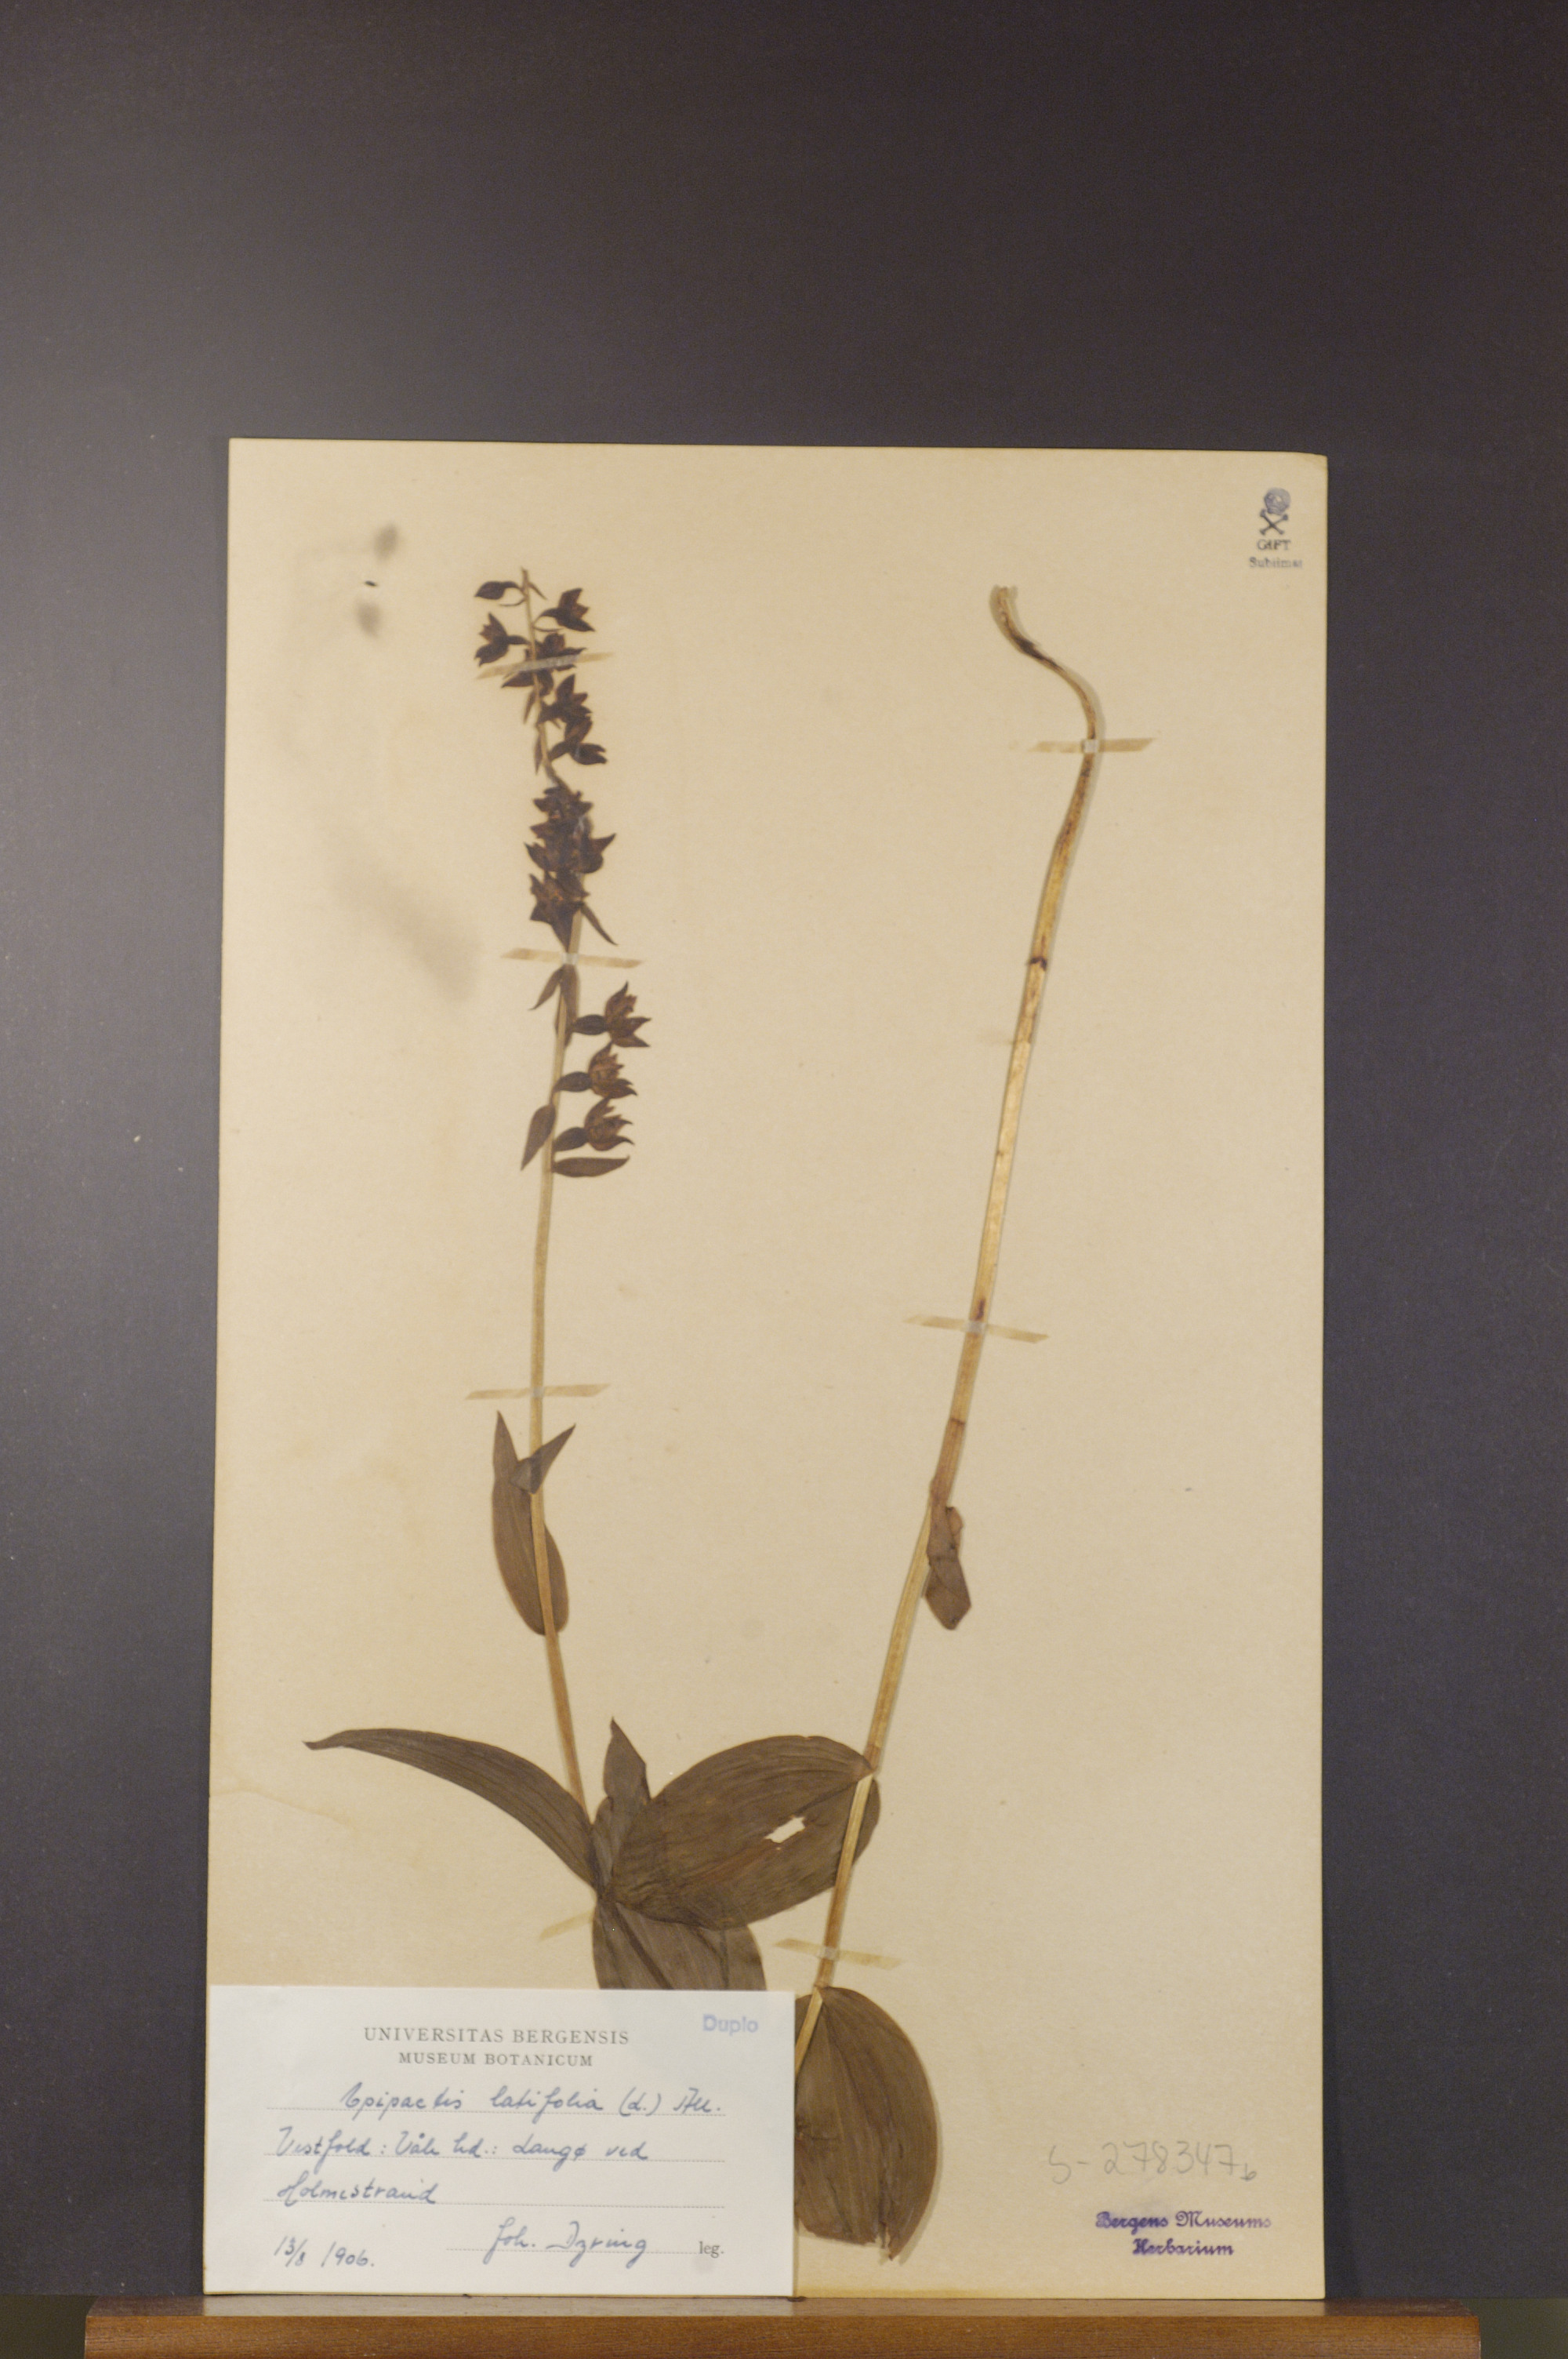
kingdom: Plantae
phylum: Tracheophyta
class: Liliopsida
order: Asparagales
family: Orchidaceae
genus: Epipactis
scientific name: Epipactis helleborine
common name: Broad-leaved helleborine
